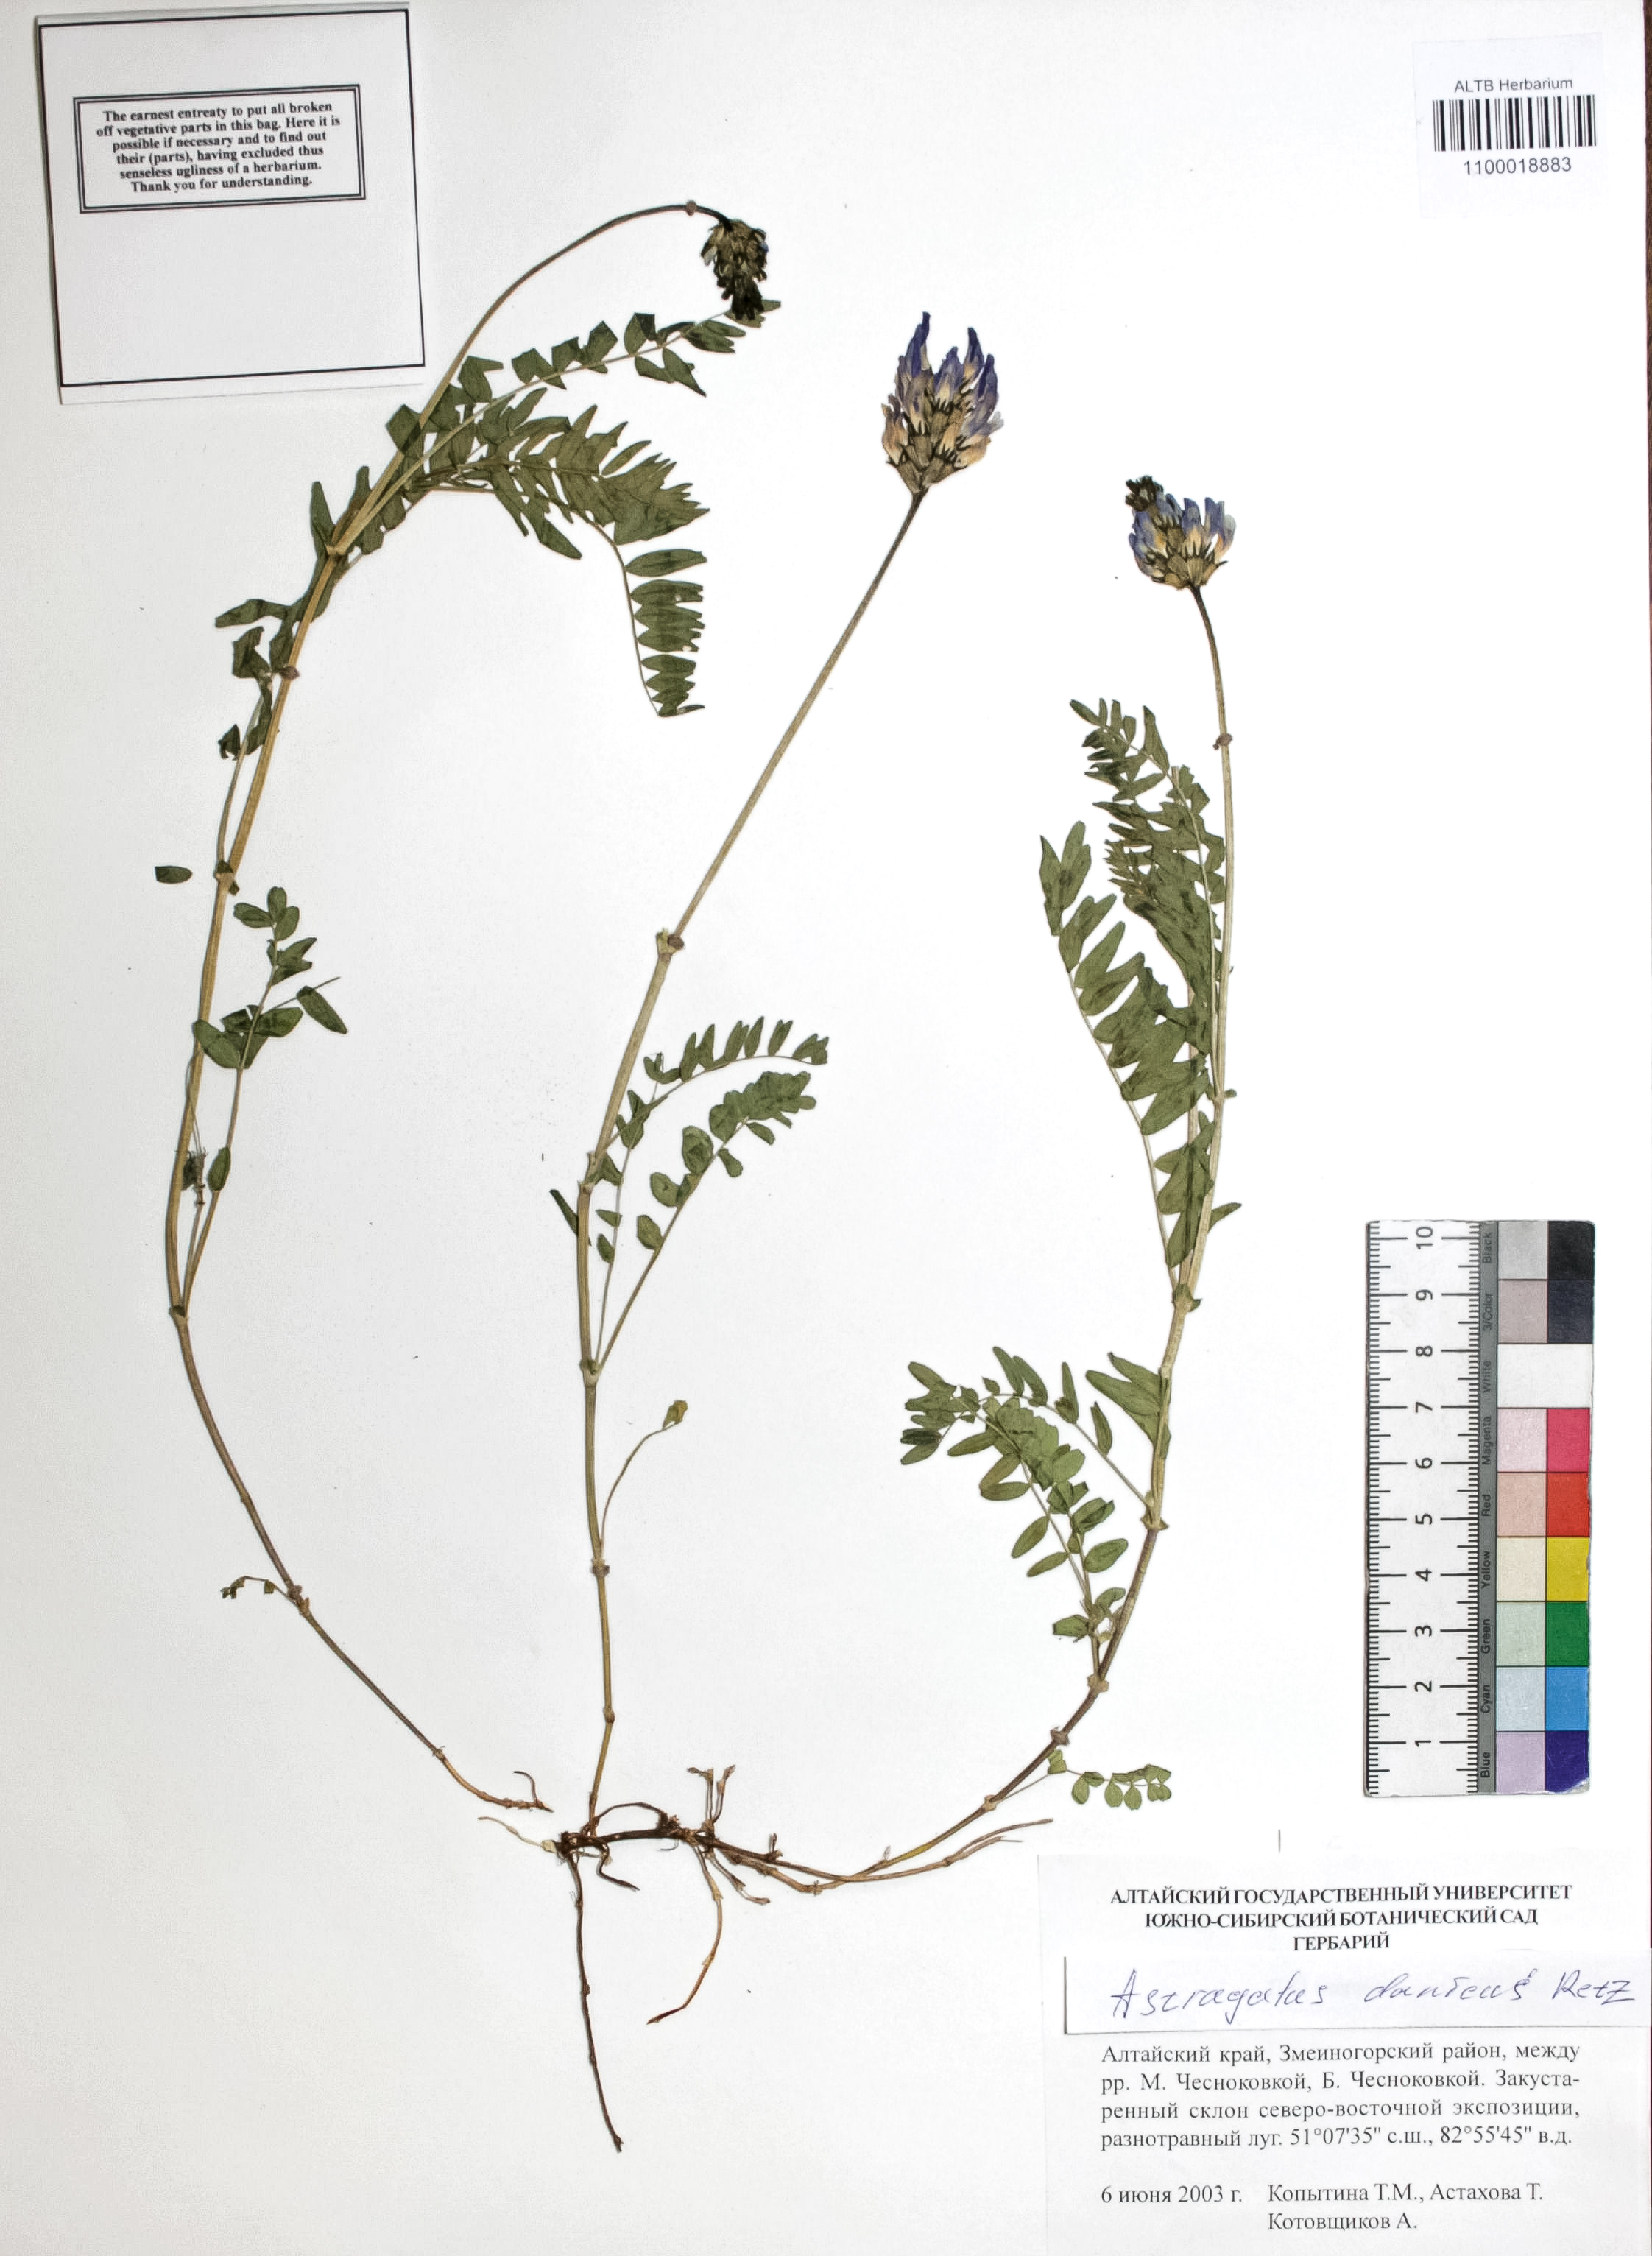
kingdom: Plantae
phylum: Tracheophyta
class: Magnoliopsida
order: Fabales
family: Fabaceae
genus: Astragalus
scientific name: Astragalus danicus
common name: Purple milk-vetch
